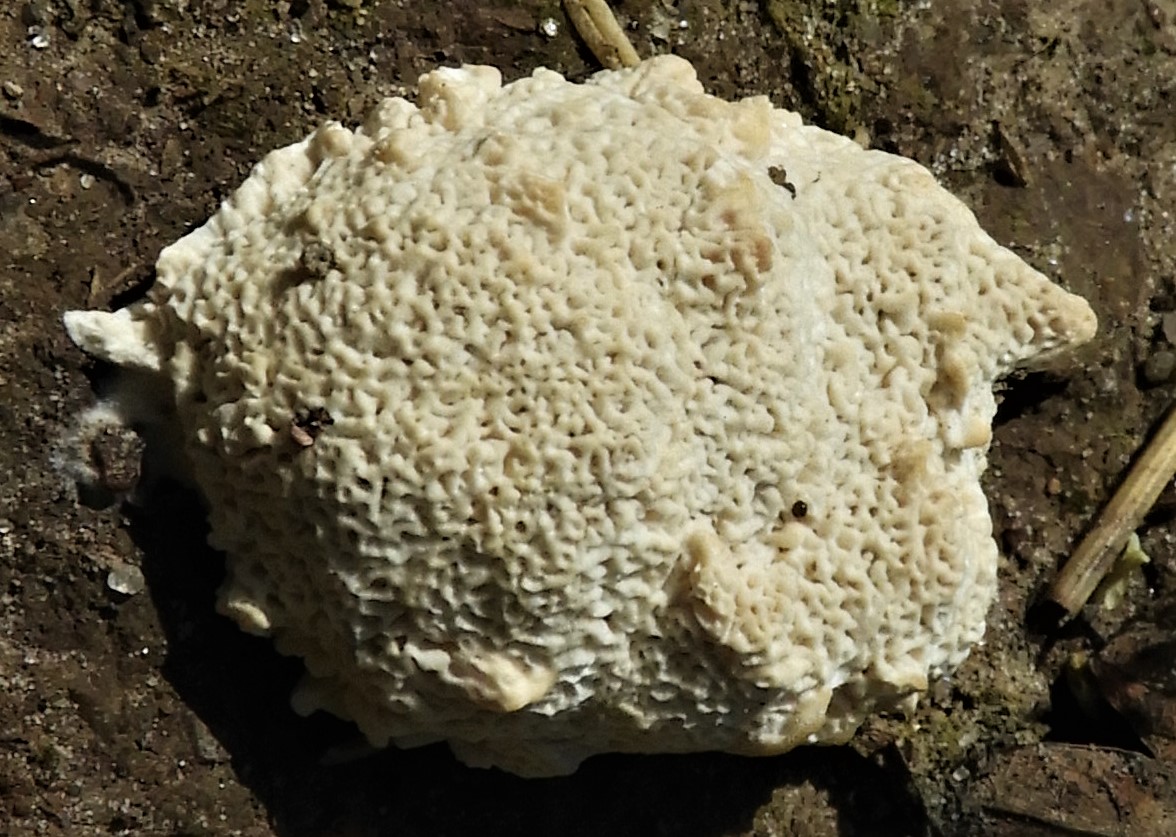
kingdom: Fungi
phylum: Basidiomycota
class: Agaricomycetes
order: Polyporales
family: Polyporaceae
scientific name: Polyporaceae
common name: poresvampfamilien
